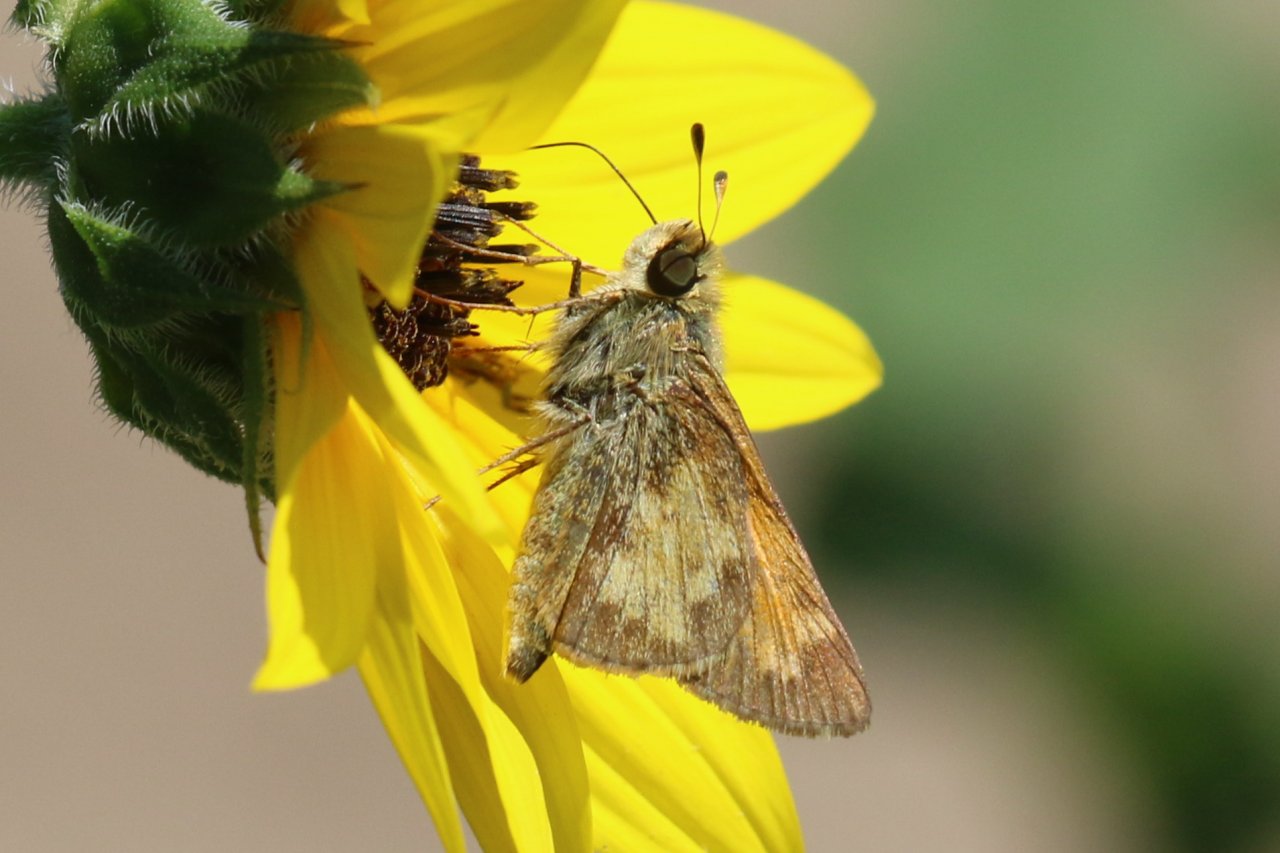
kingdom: Animalia
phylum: Arthropoda
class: Insecta
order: Lepidoptera
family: Hesperiidae
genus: Atalopedes
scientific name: Atalopedes campestris
